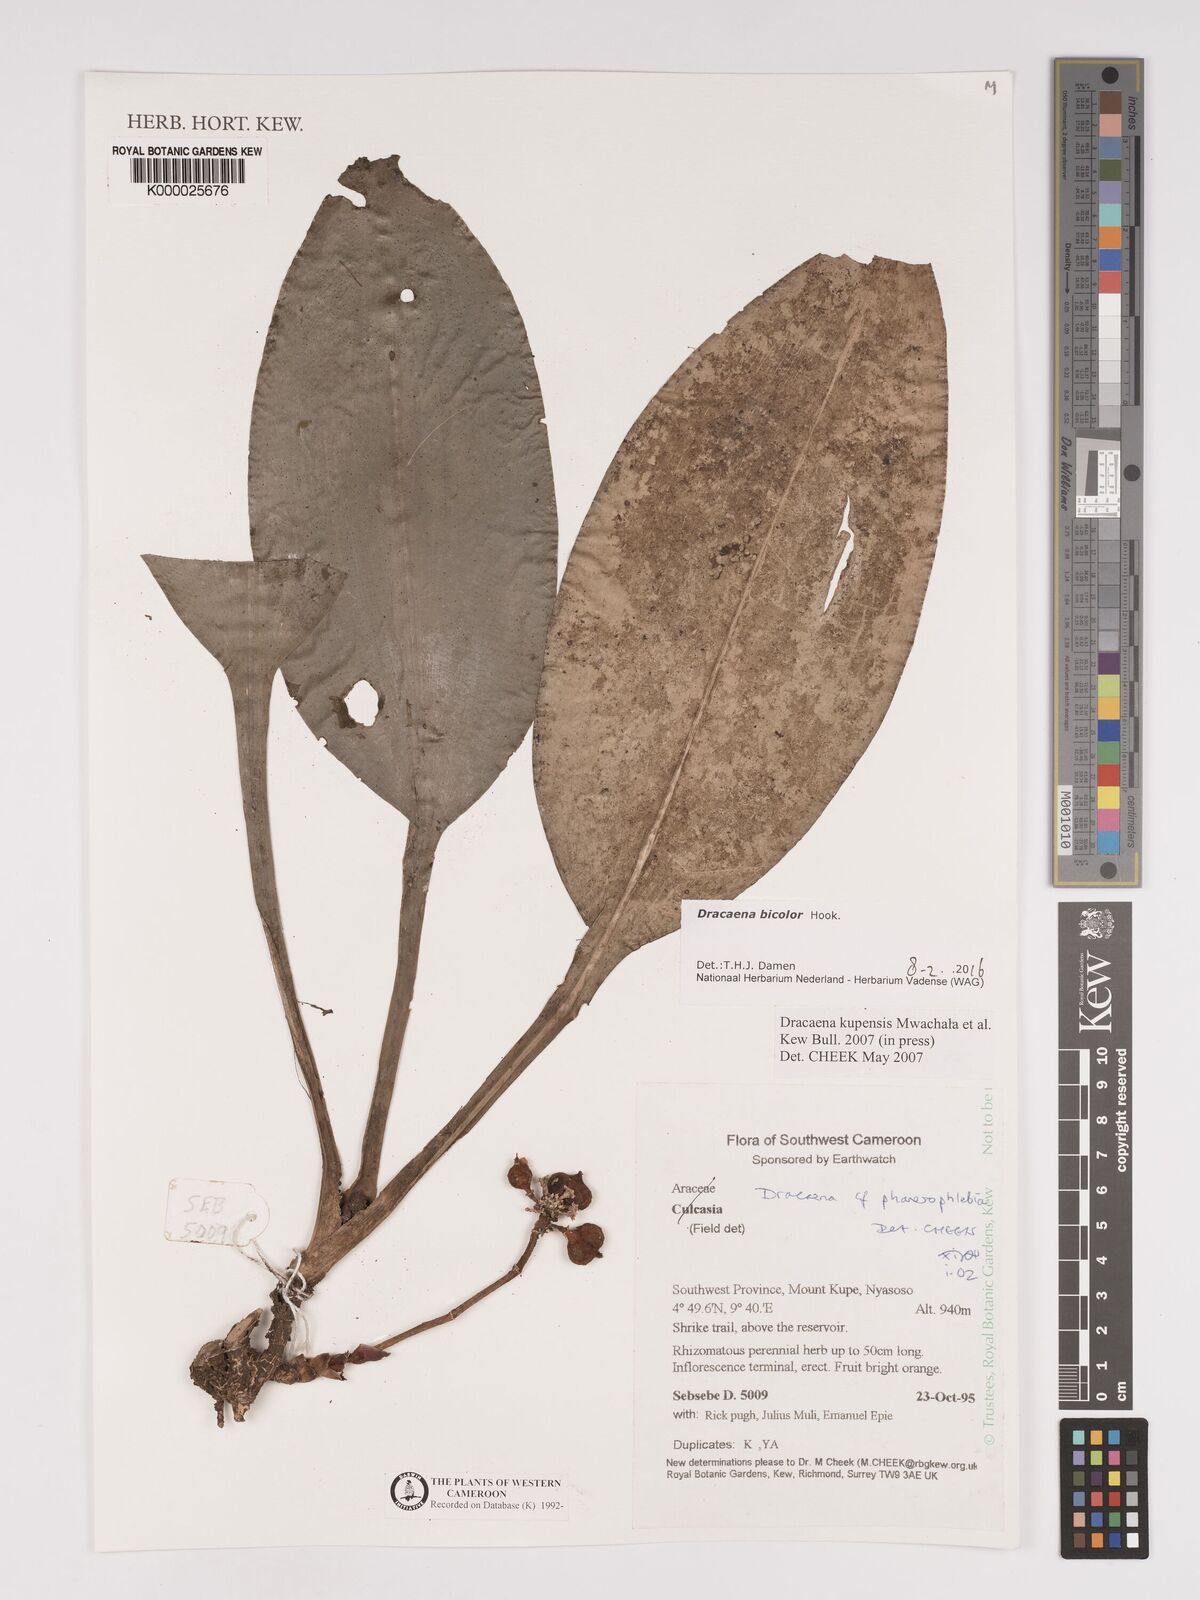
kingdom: Plantae
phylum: Tracheophyta
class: Liliopsida
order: Asparagales
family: Asparagaceae
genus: Dracaena
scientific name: Dracaena kupensis
